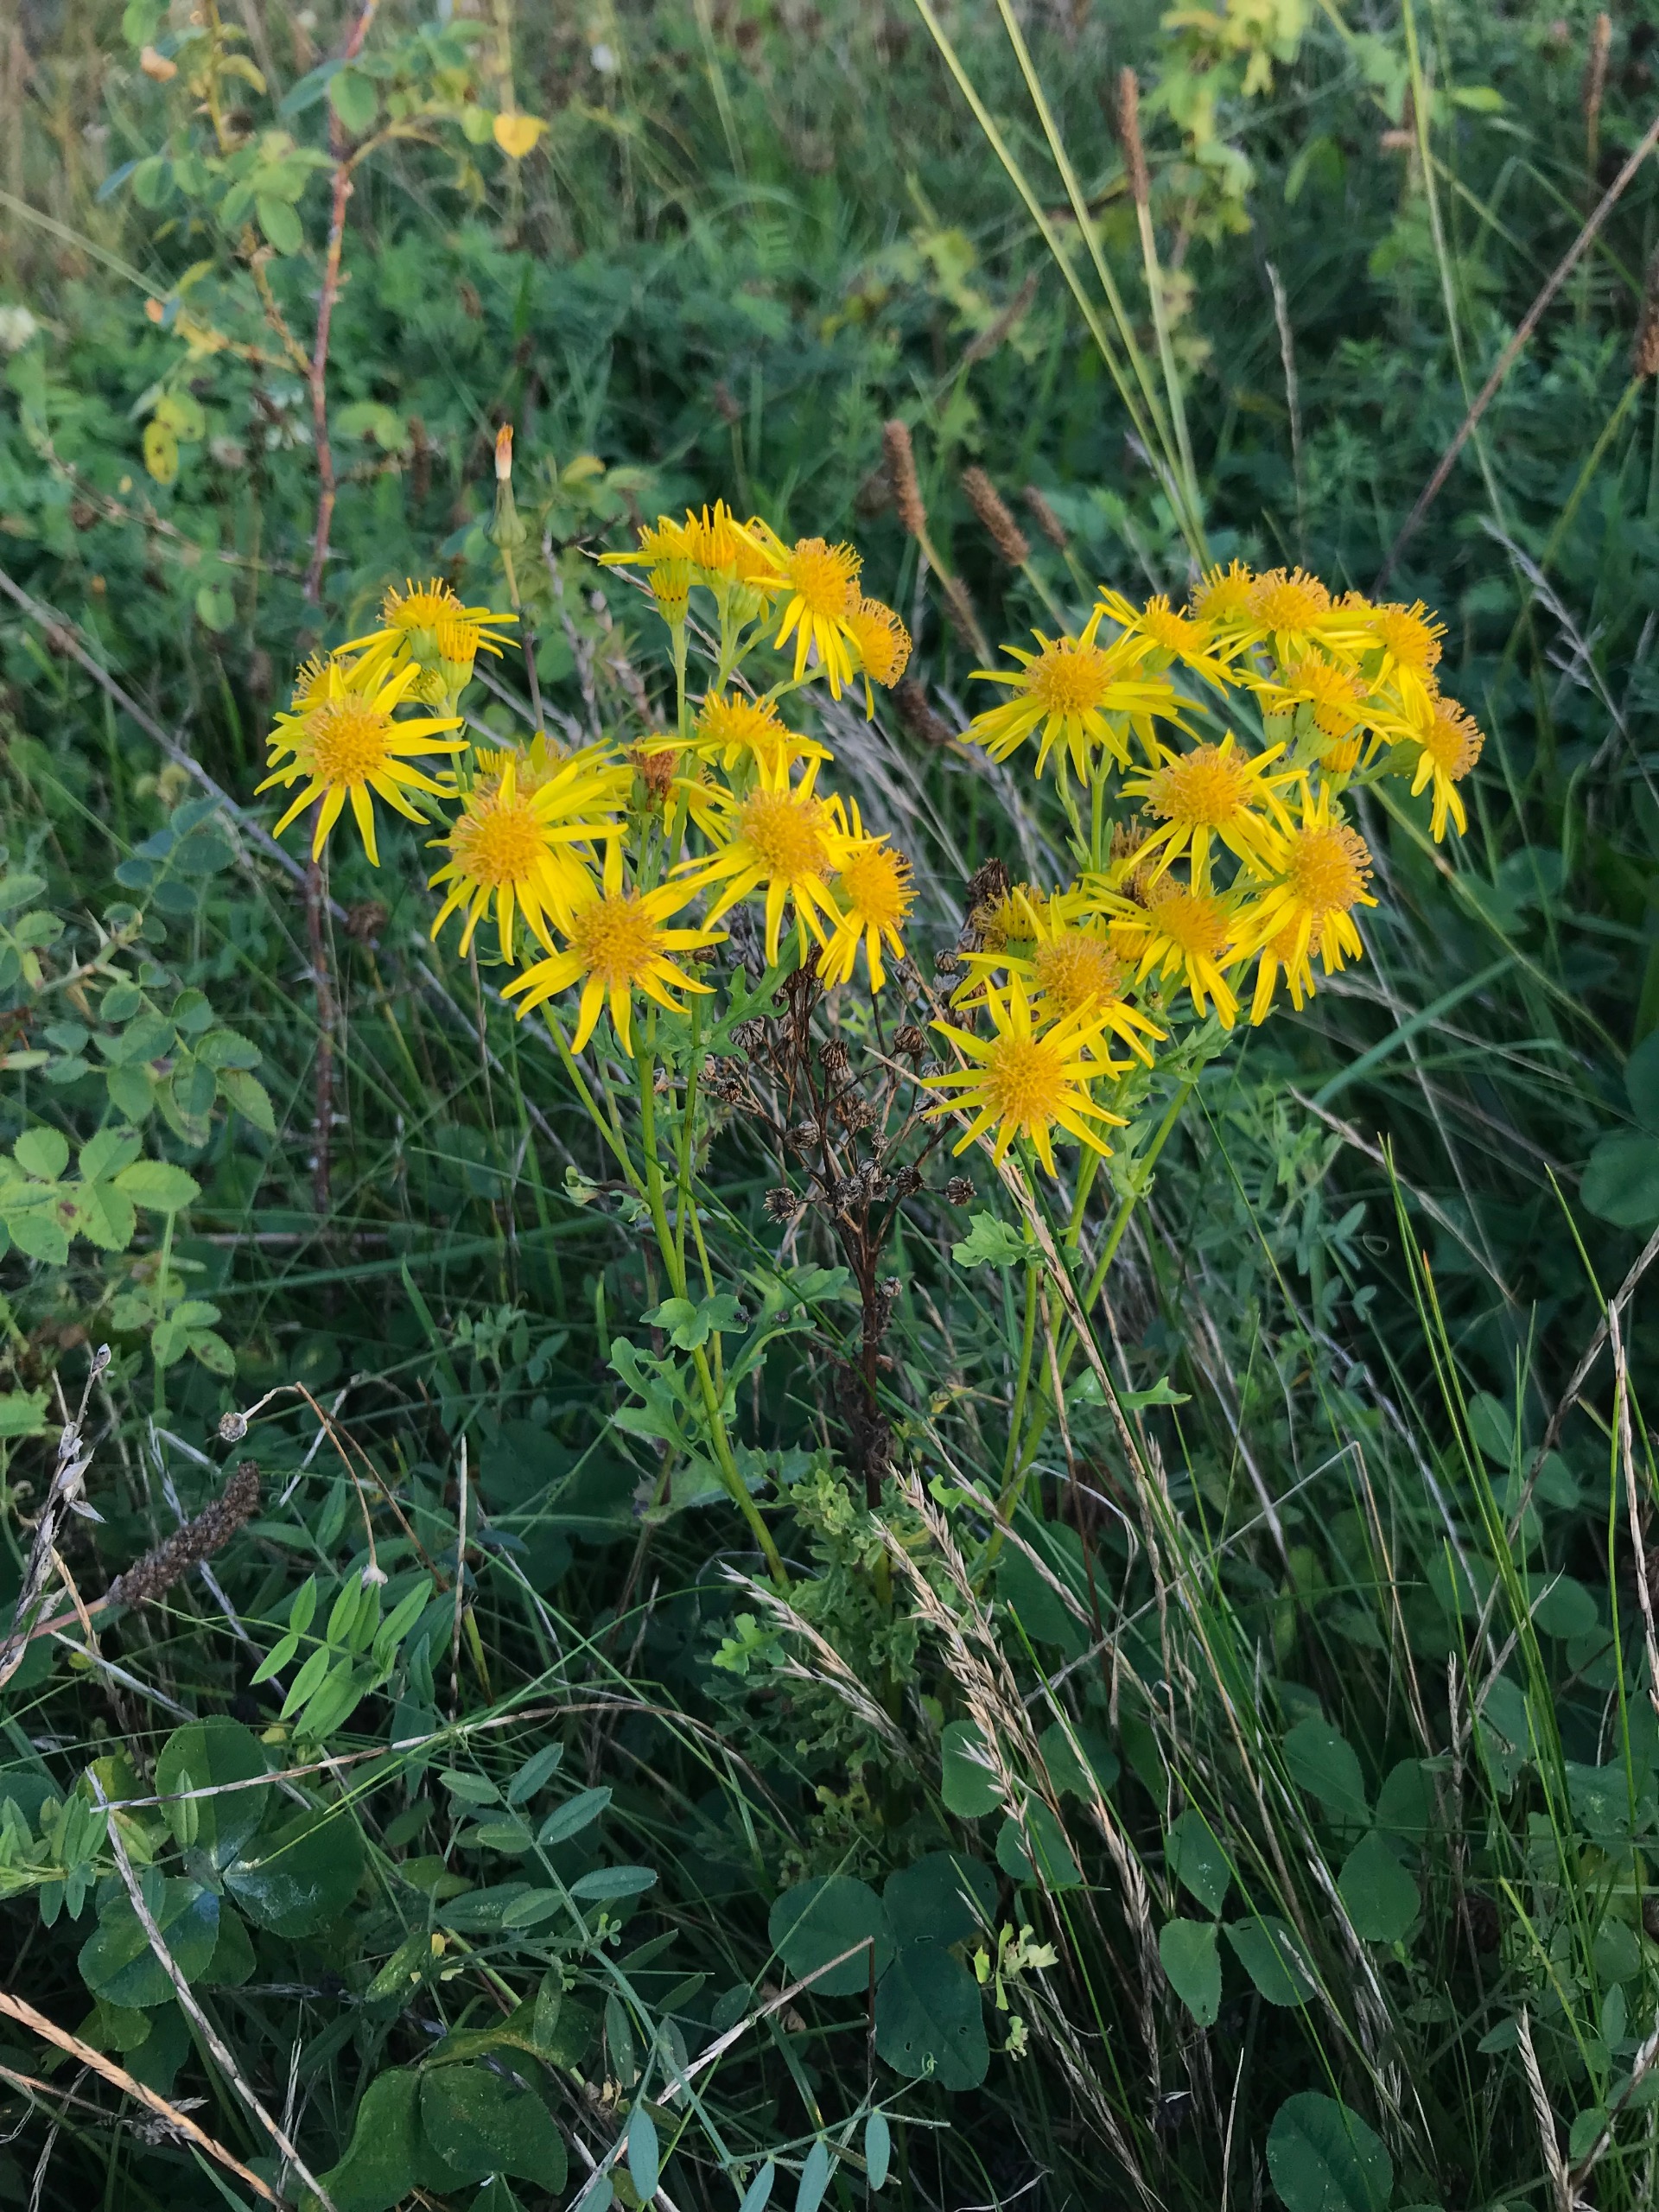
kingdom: Plantae
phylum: Tracheophyta
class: Magnoliopsida
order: Asterales
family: Asteraceae
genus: Jacobaea
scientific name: Jacobaea vulgaris
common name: Eng-brandbæger
